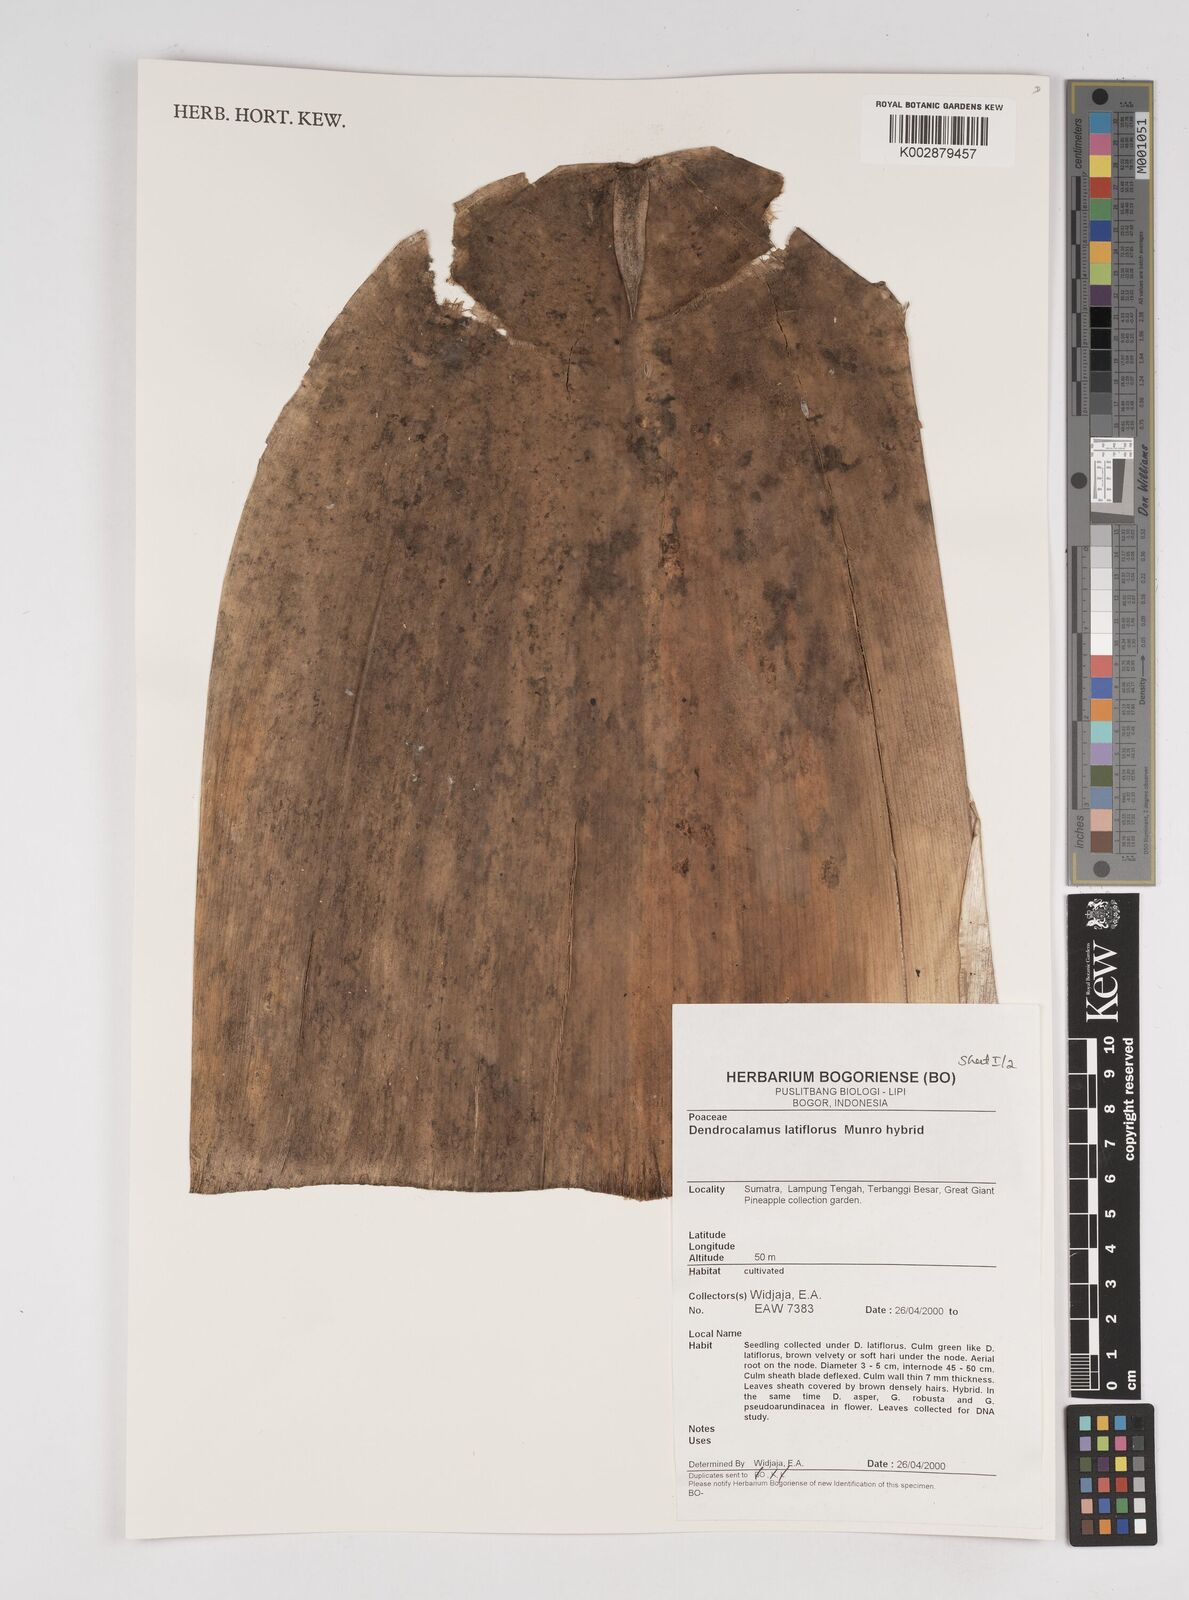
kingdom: Plantae
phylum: Tracheophyta
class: Liliopsida
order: Poales
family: Poaceae
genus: Dendrocalamus
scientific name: Dendrocalamus latiflorus
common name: Giant bamboo
